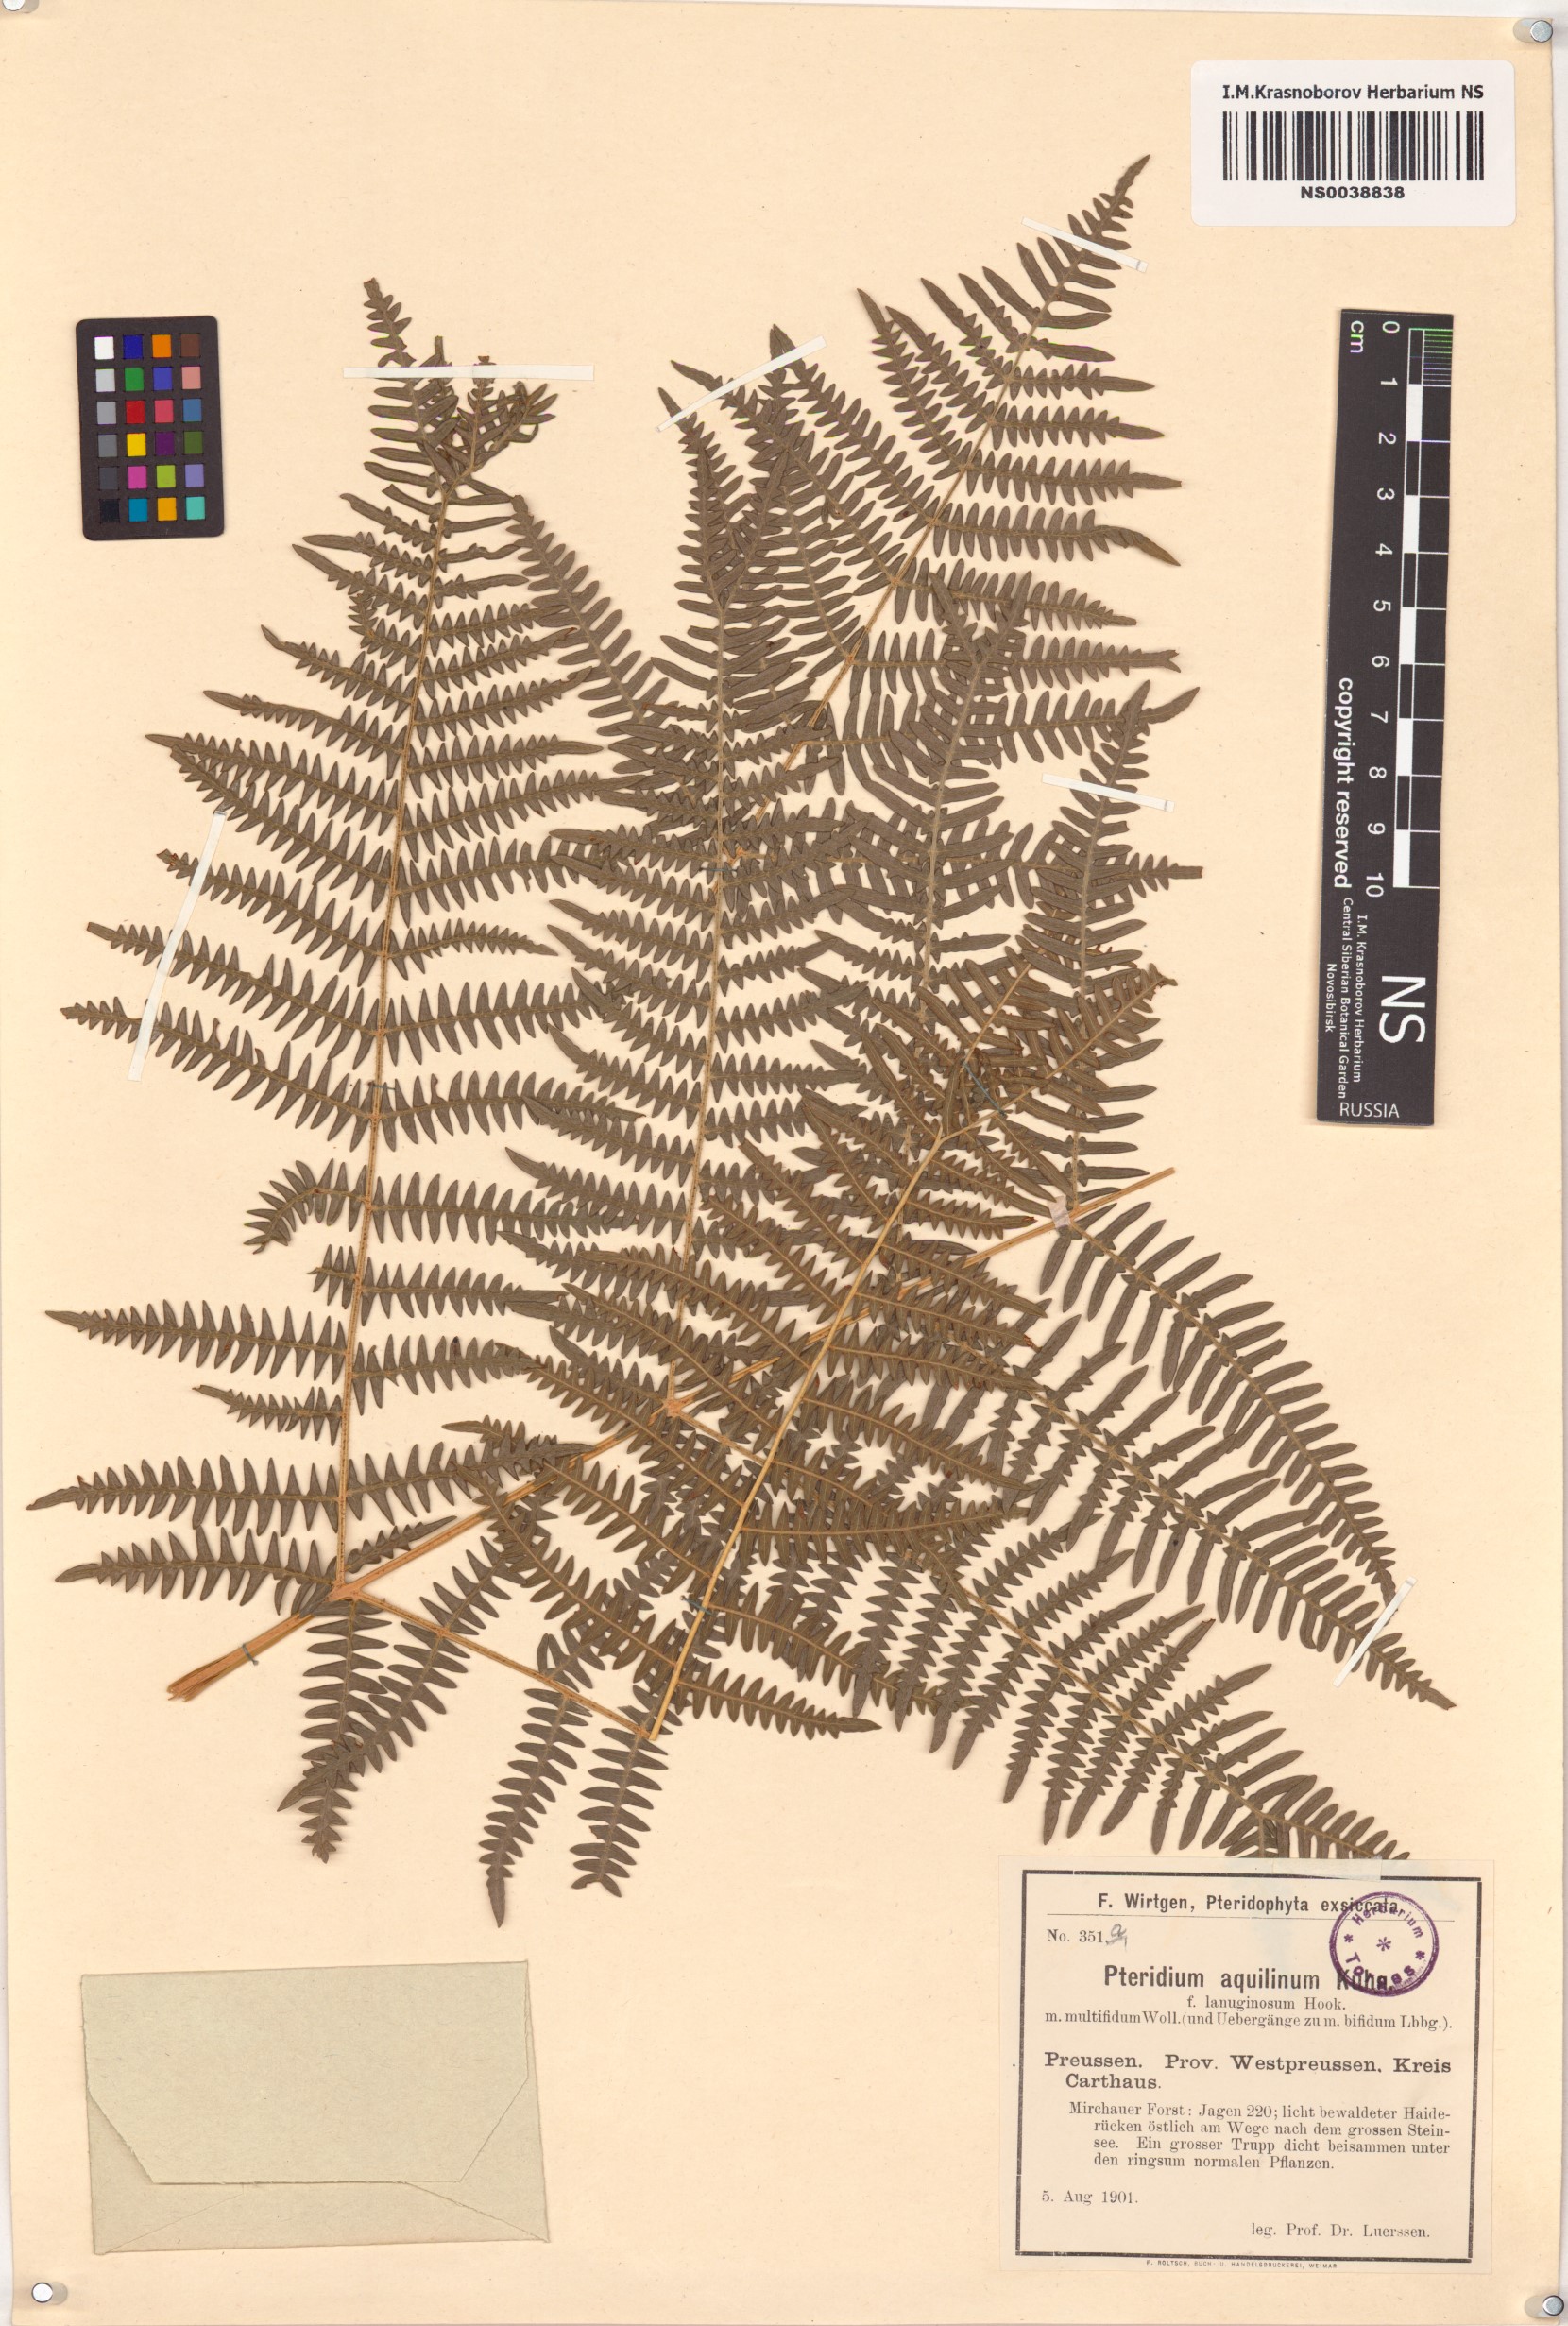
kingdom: Plantae
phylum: Tracheophyta
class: Polypodiopsida
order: Polypodiales
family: Dennstaedtiaceae
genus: Pteridium
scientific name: Pteridium aquilinum
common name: Bracken
